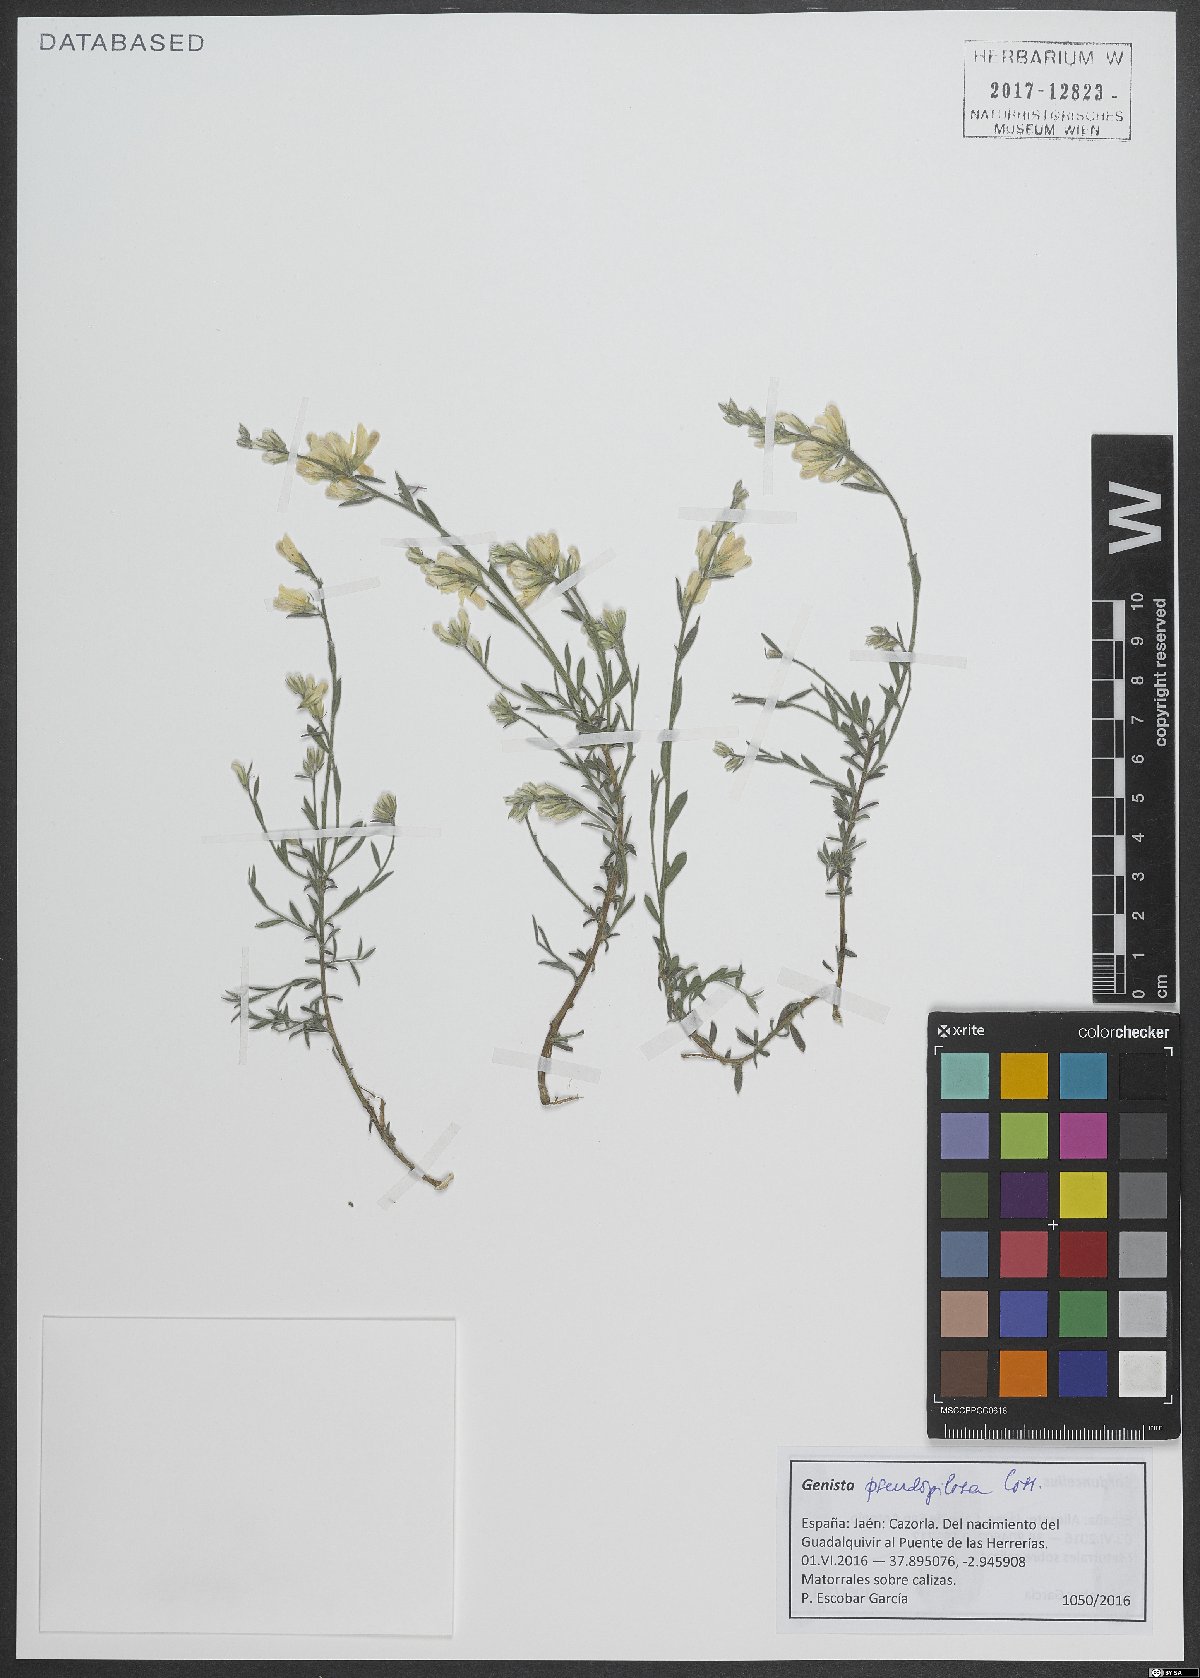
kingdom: Plantae
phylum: Tracheophyta
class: Magnoliopsida
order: Fabales
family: Fabaceae
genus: Genista
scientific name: Genista pseudopilosa
